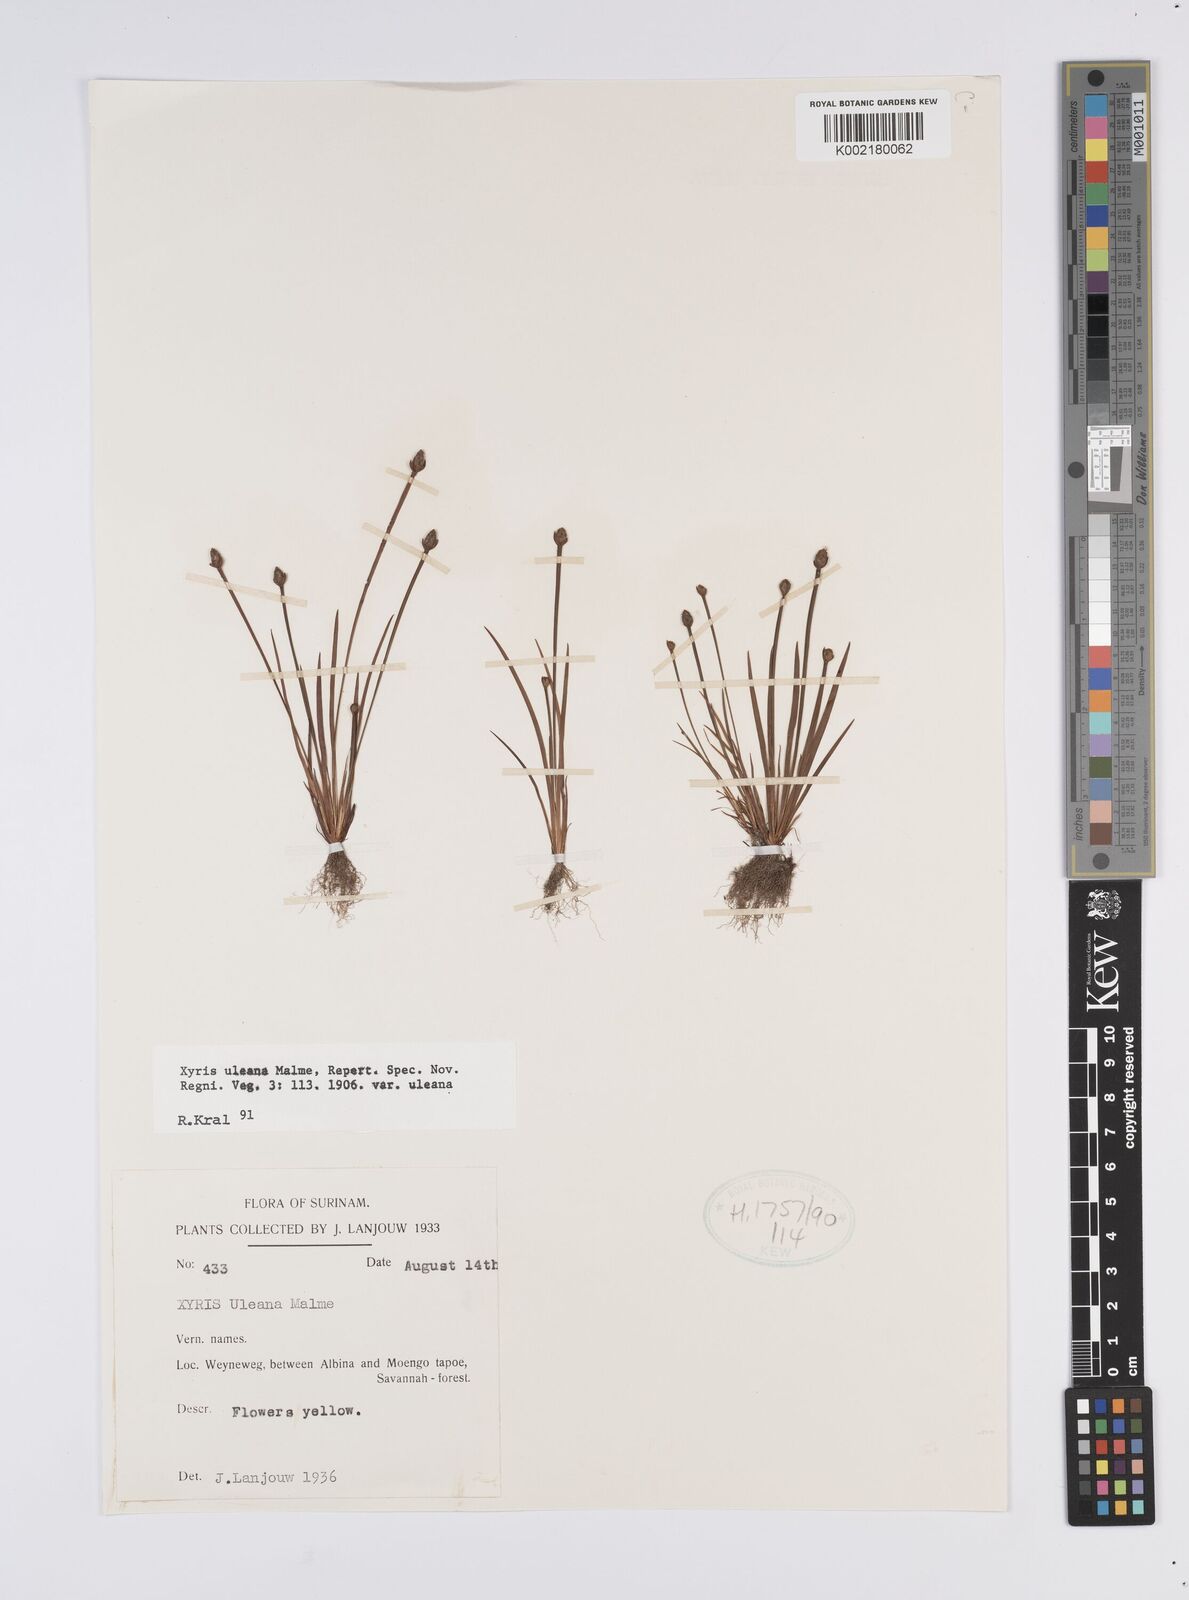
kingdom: Plantae
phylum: Tracheophyta
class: Liliopsida
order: Poales
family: Xyridaceae
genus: Xyris
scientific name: Xyris uleana
